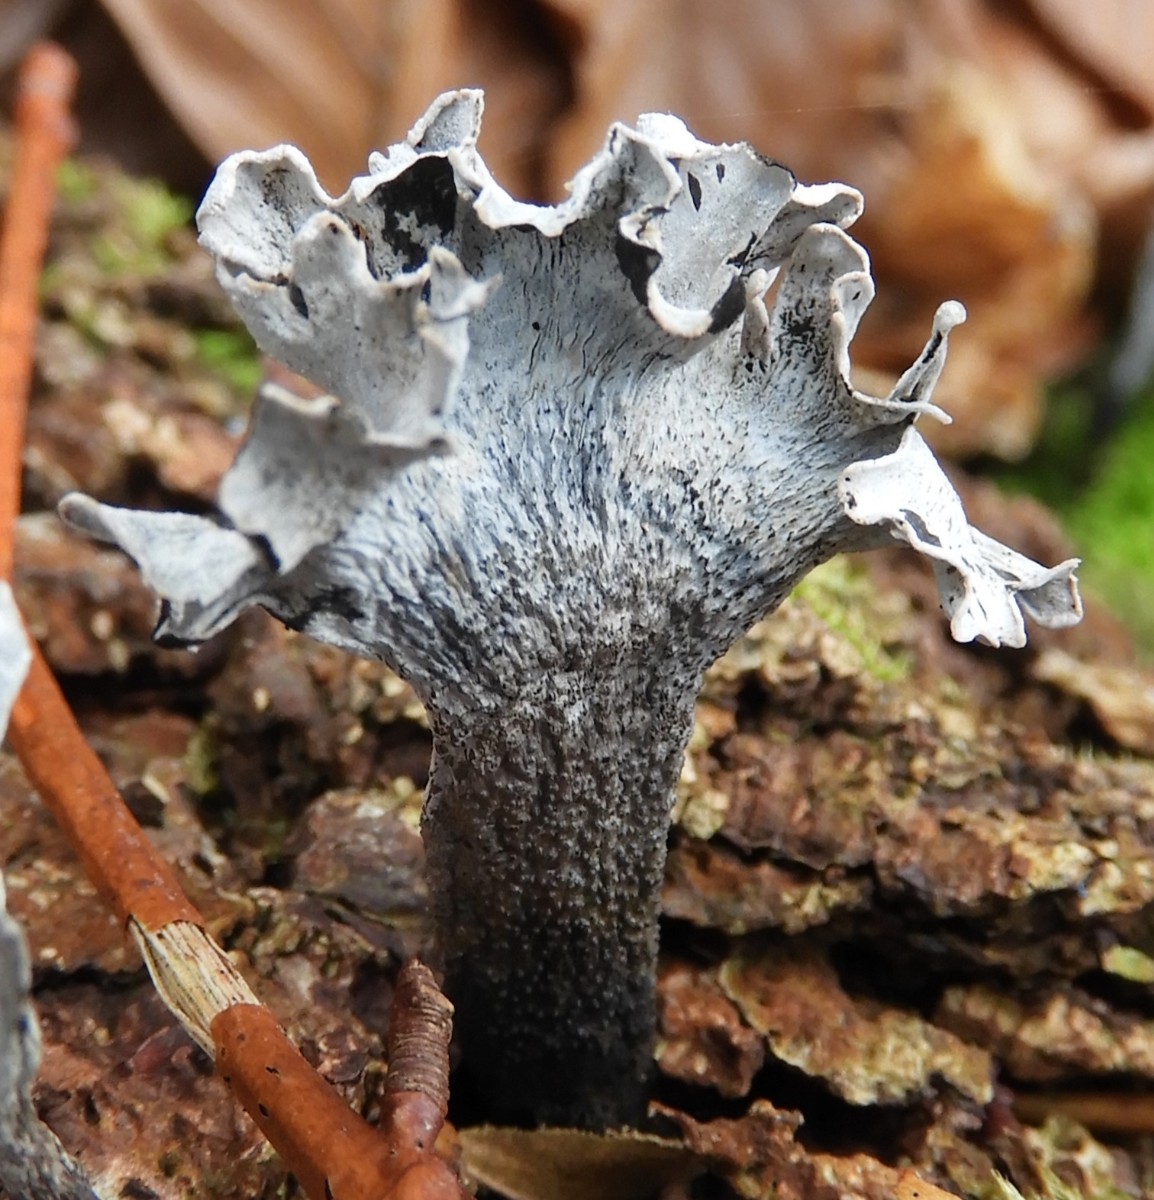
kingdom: Fungi
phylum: Ascomycota
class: Sordariomycetes
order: Xylariales
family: Xylariaceae
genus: Xylaria
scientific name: Xylaria hypoxylon
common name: grenet stødsvamp
